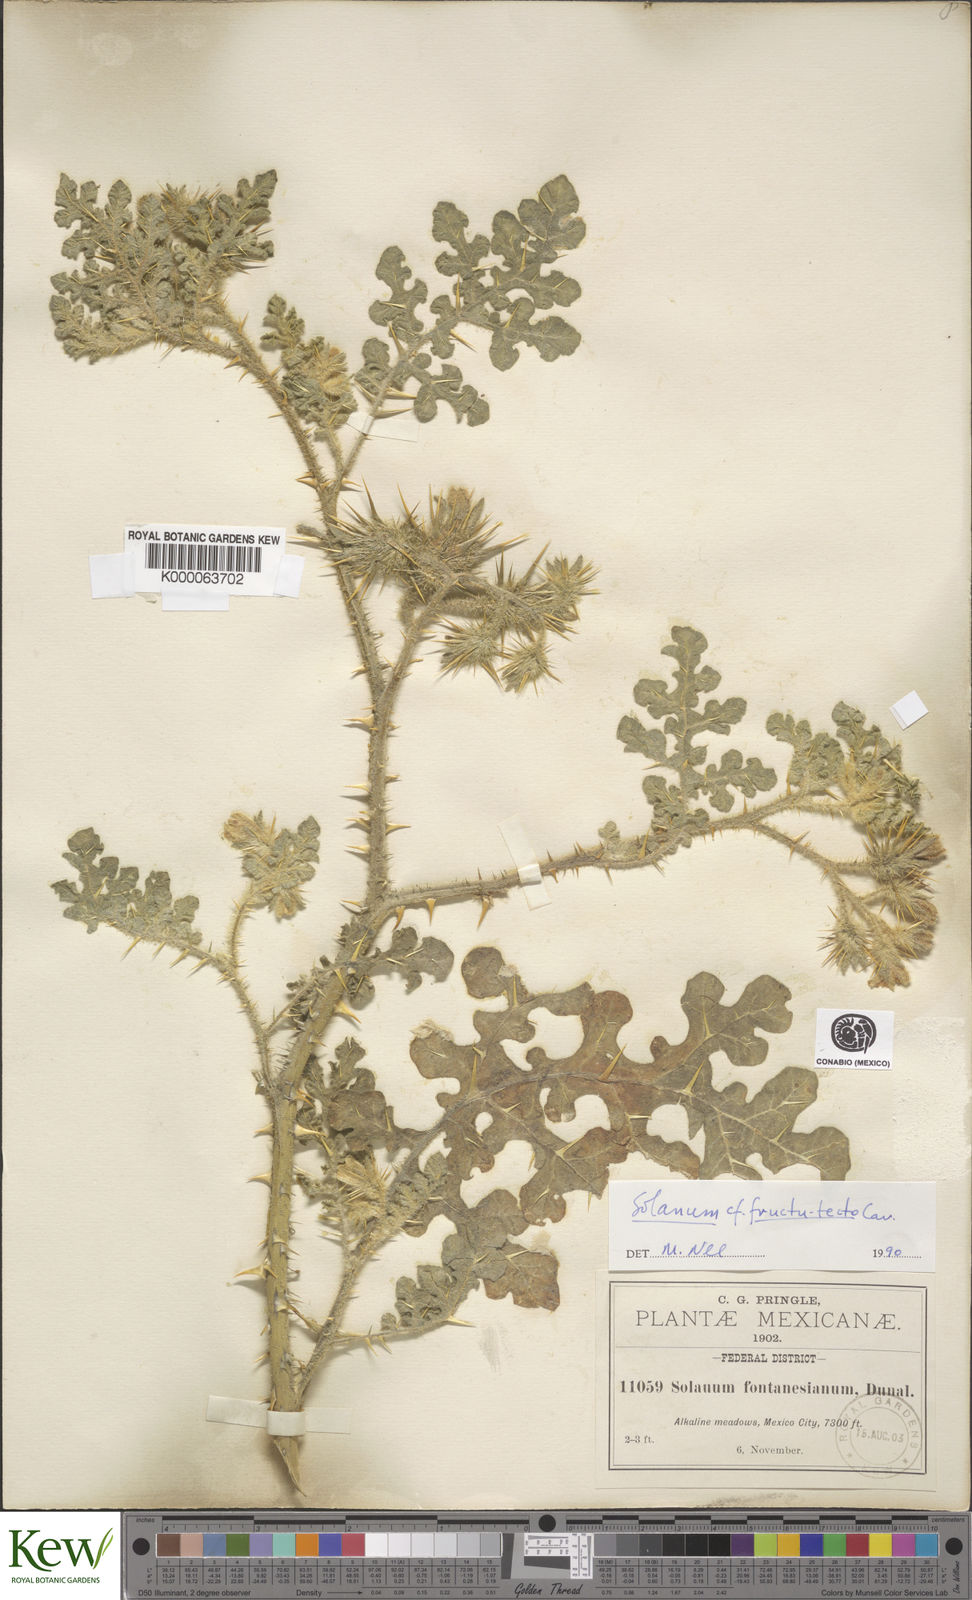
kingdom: Plantae
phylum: Tracheophyta
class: Magnoliopsida
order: Solanales
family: Solanaceae
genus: Solanum
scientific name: Solanum tectum
